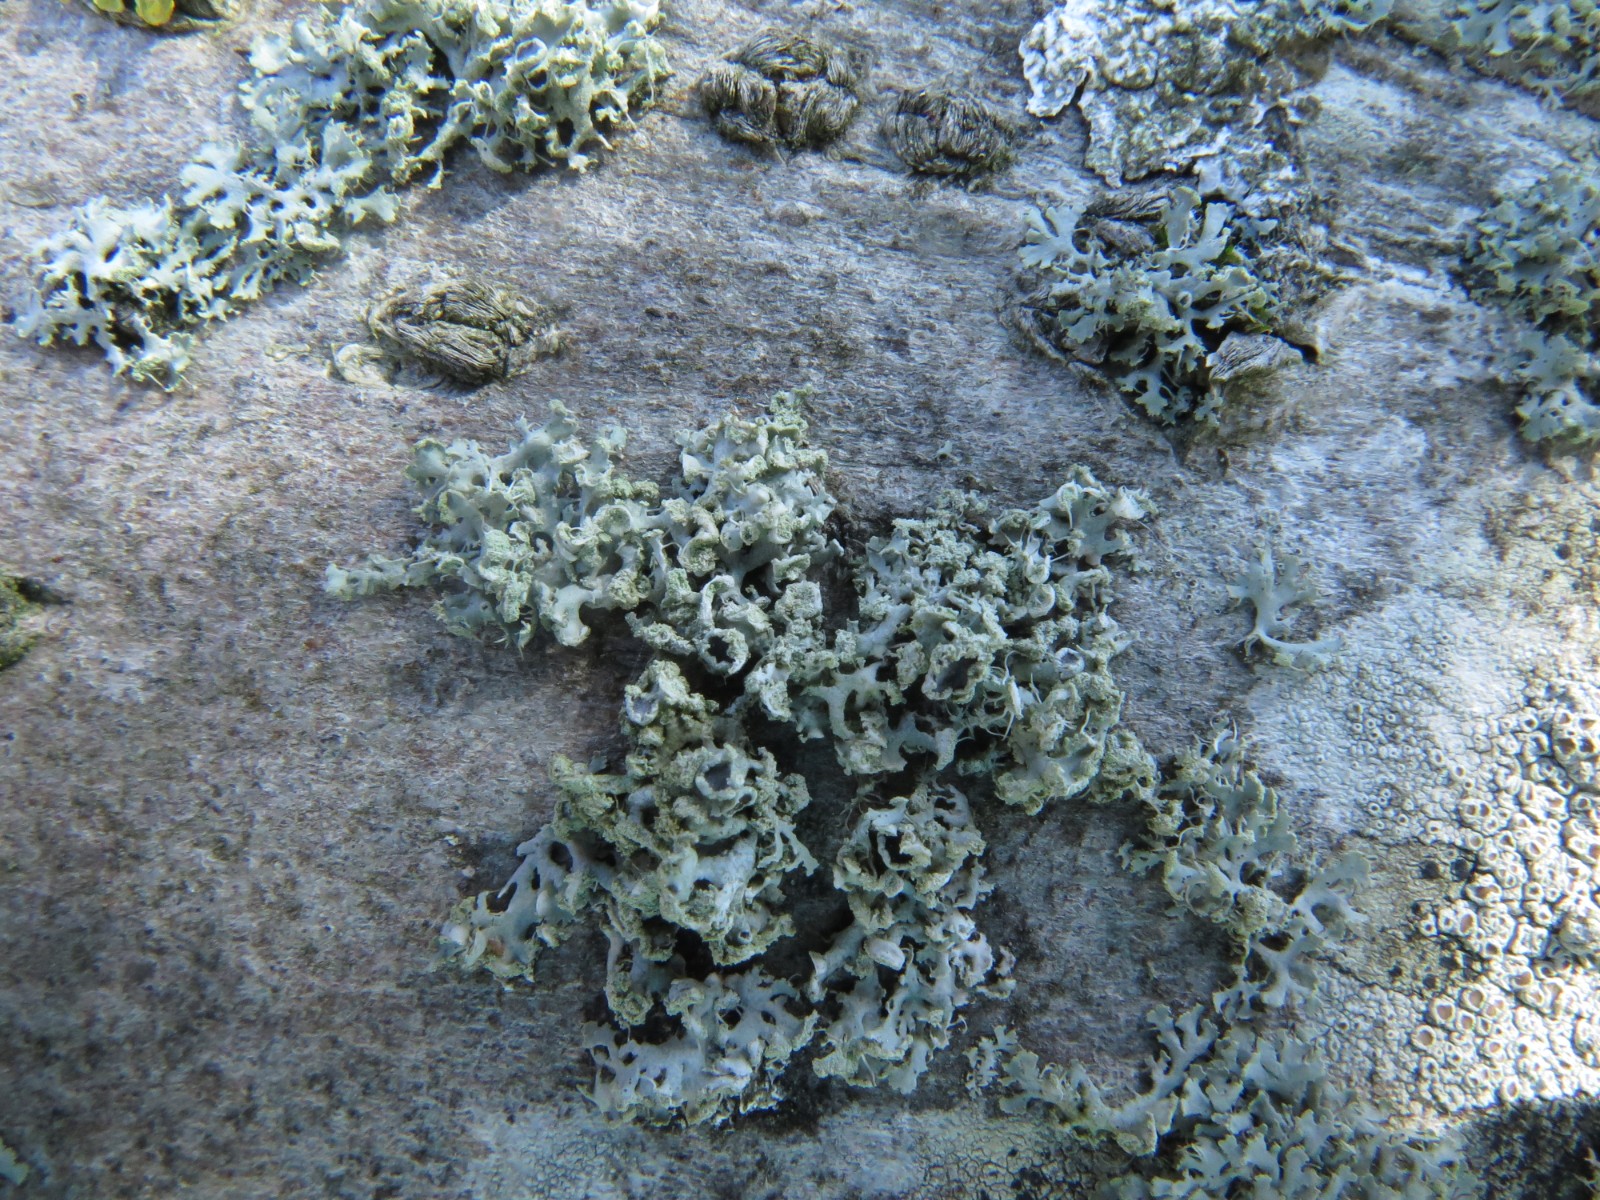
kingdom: Fungi
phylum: Ascomycota
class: Lecanoromycetes
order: Caliciales
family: Physciaceae
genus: Physcia
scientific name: Physcia adscendens
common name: hætte-rosetlav
